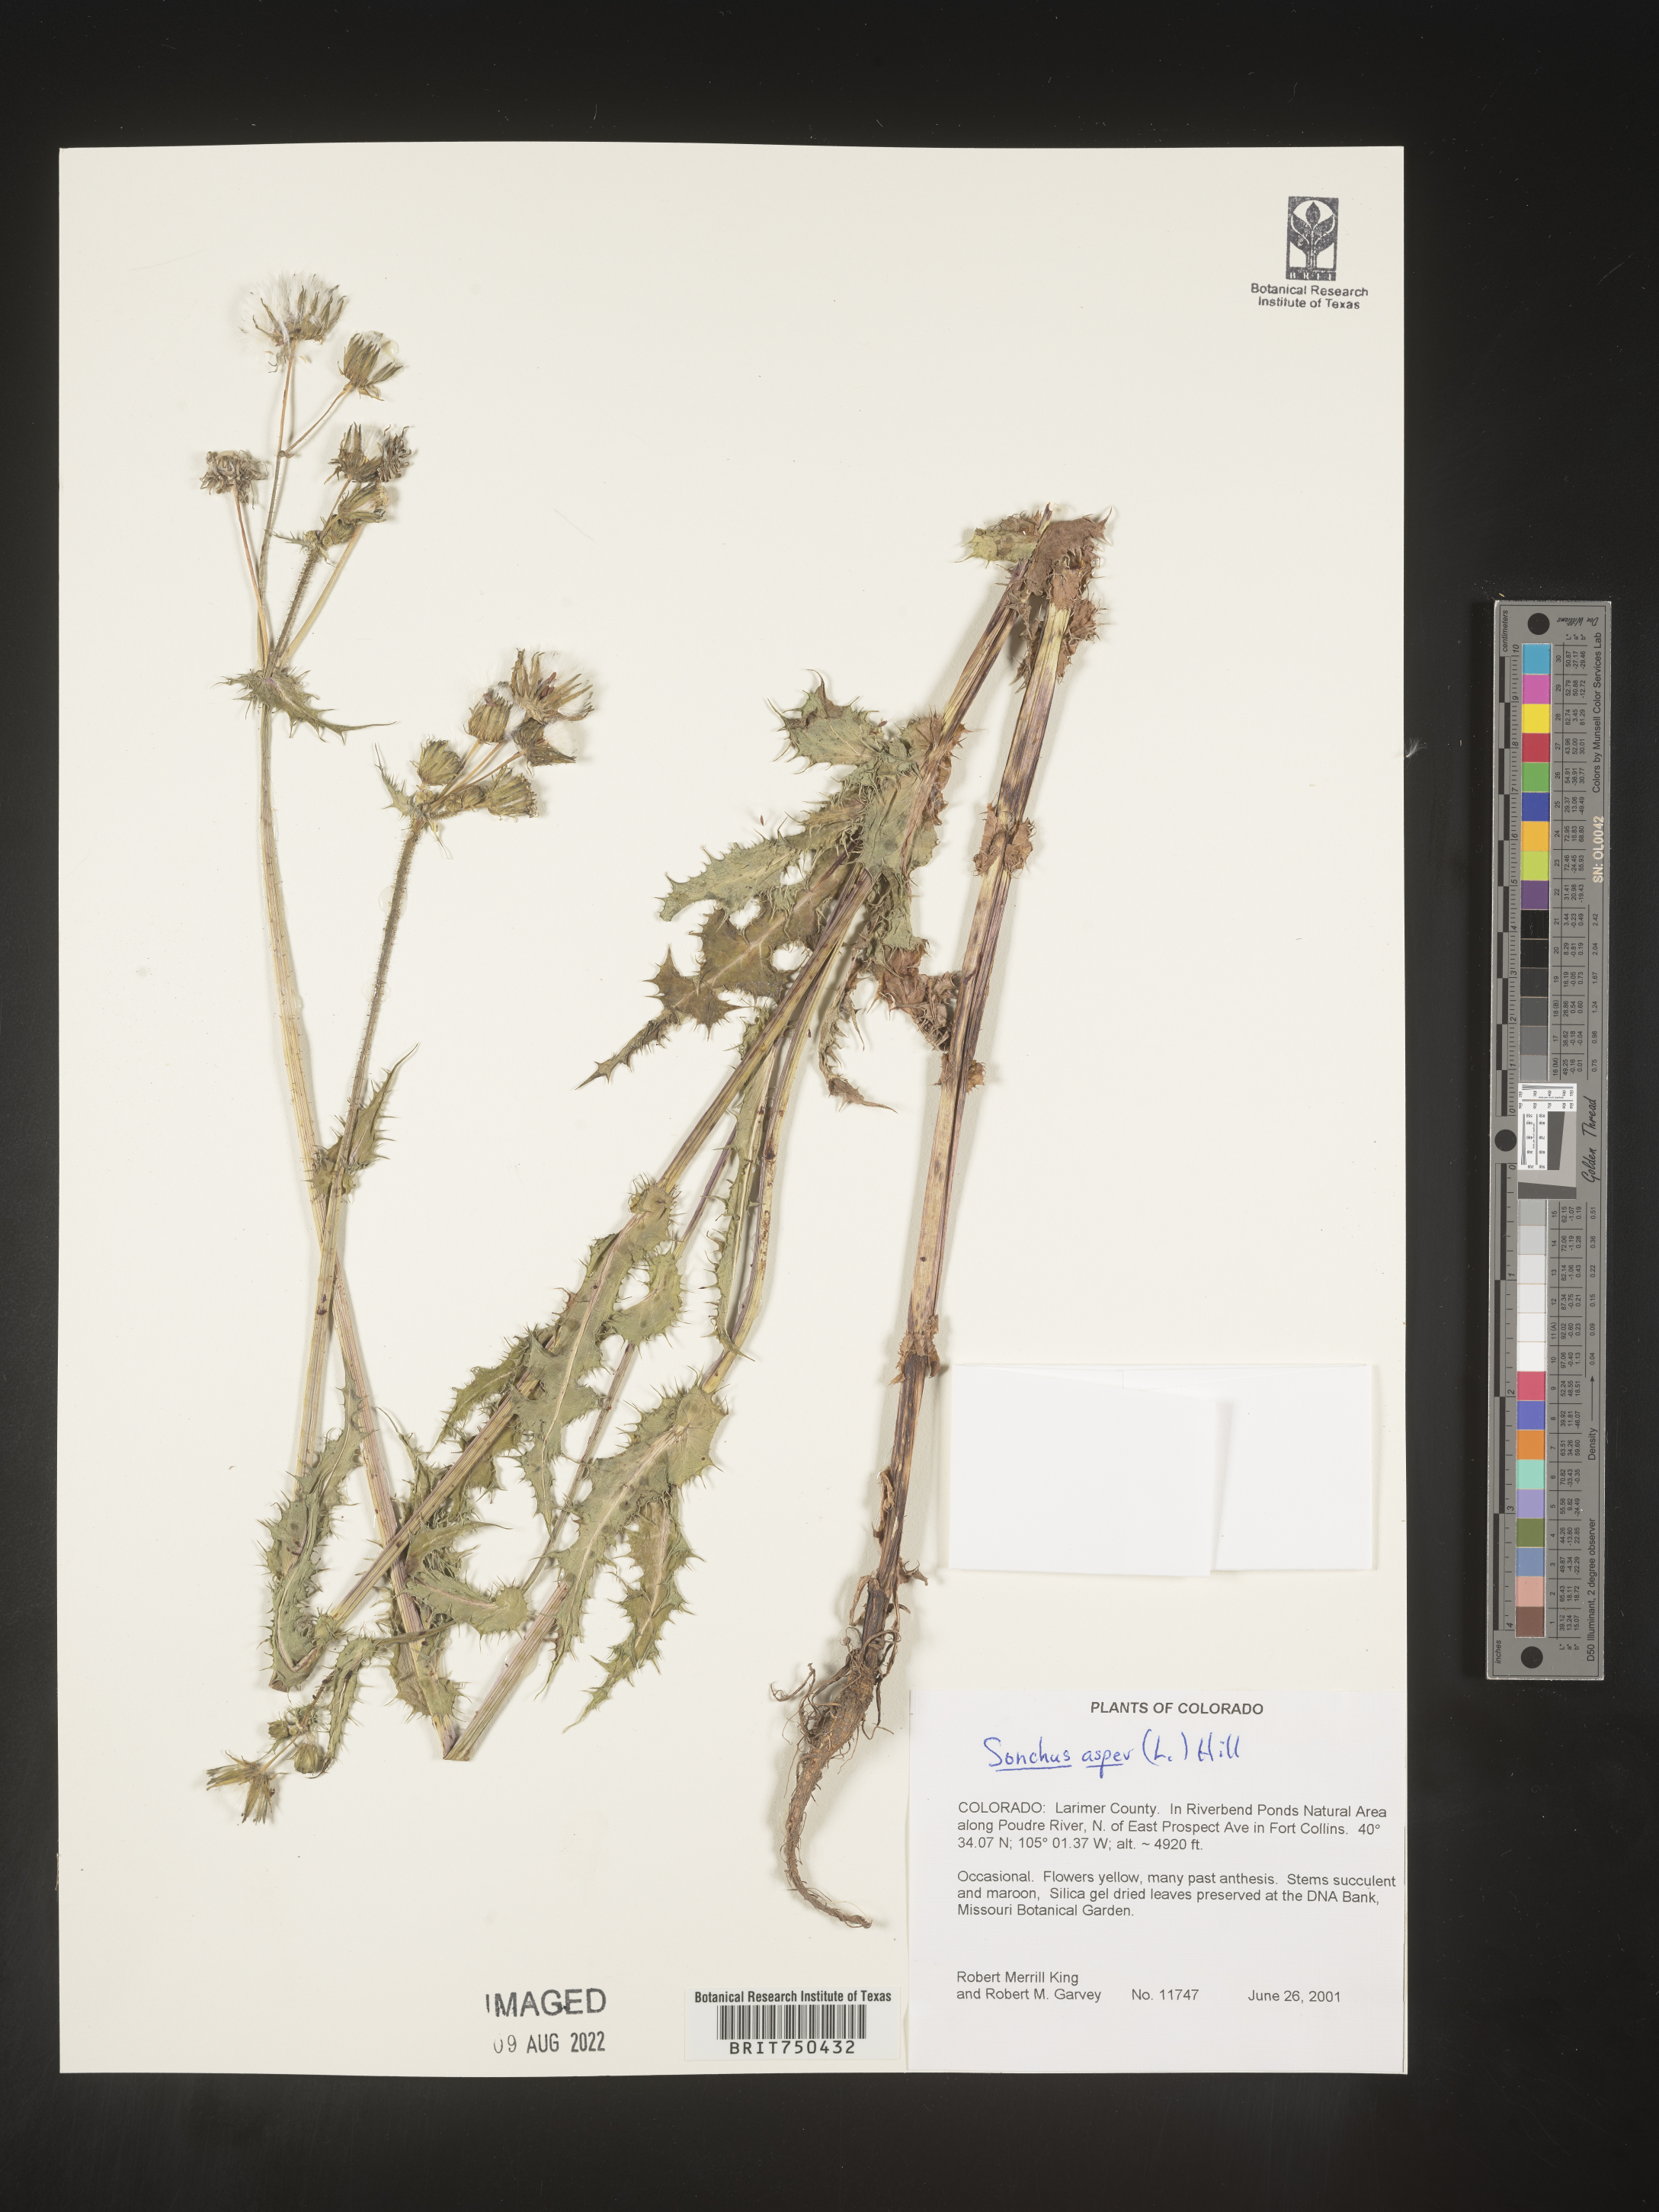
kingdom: Plantae
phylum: Tracheophyta
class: Magnoliopsida
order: Asterales
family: Asteraceae
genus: Sonchus
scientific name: Sonchus asper
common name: Prickly sow-thistle
